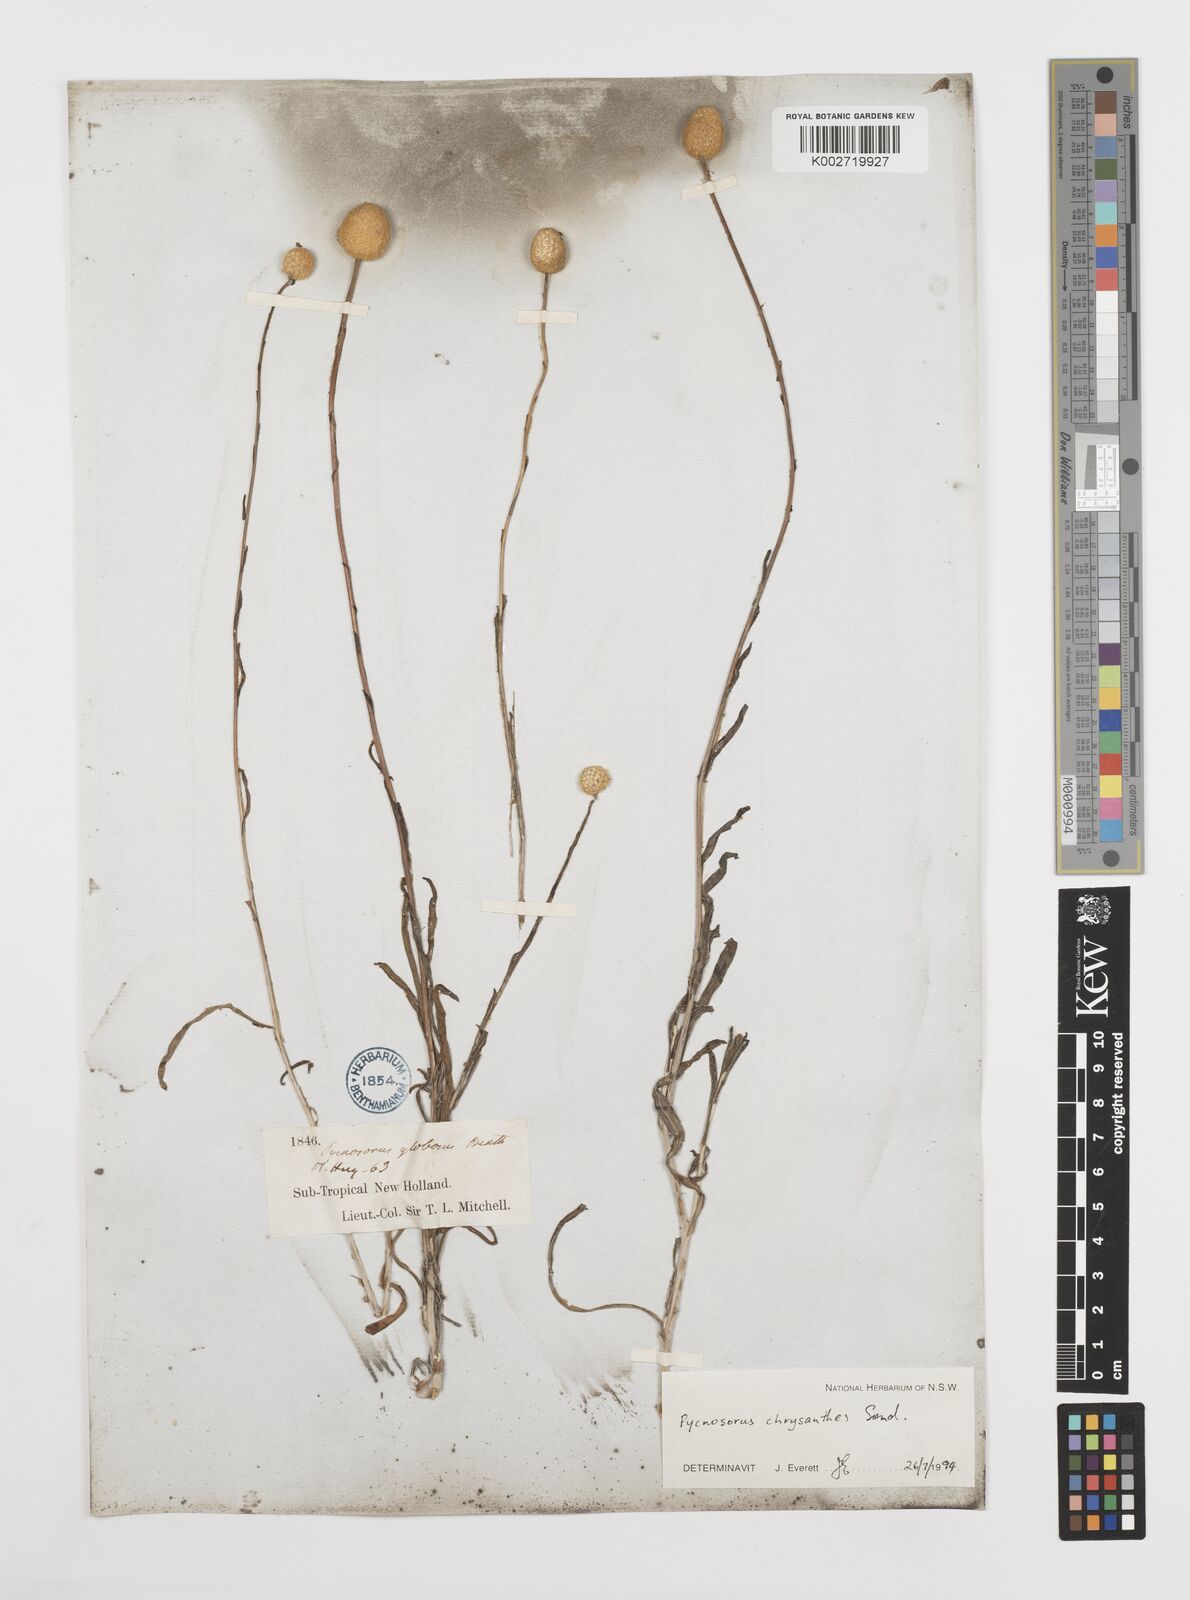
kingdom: Plantae
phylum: Tracheophyta
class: Magnoliopsida
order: Asterales
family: Asteraceae
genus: Pycnosorus
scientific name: Pycnosorus chrysanthus
